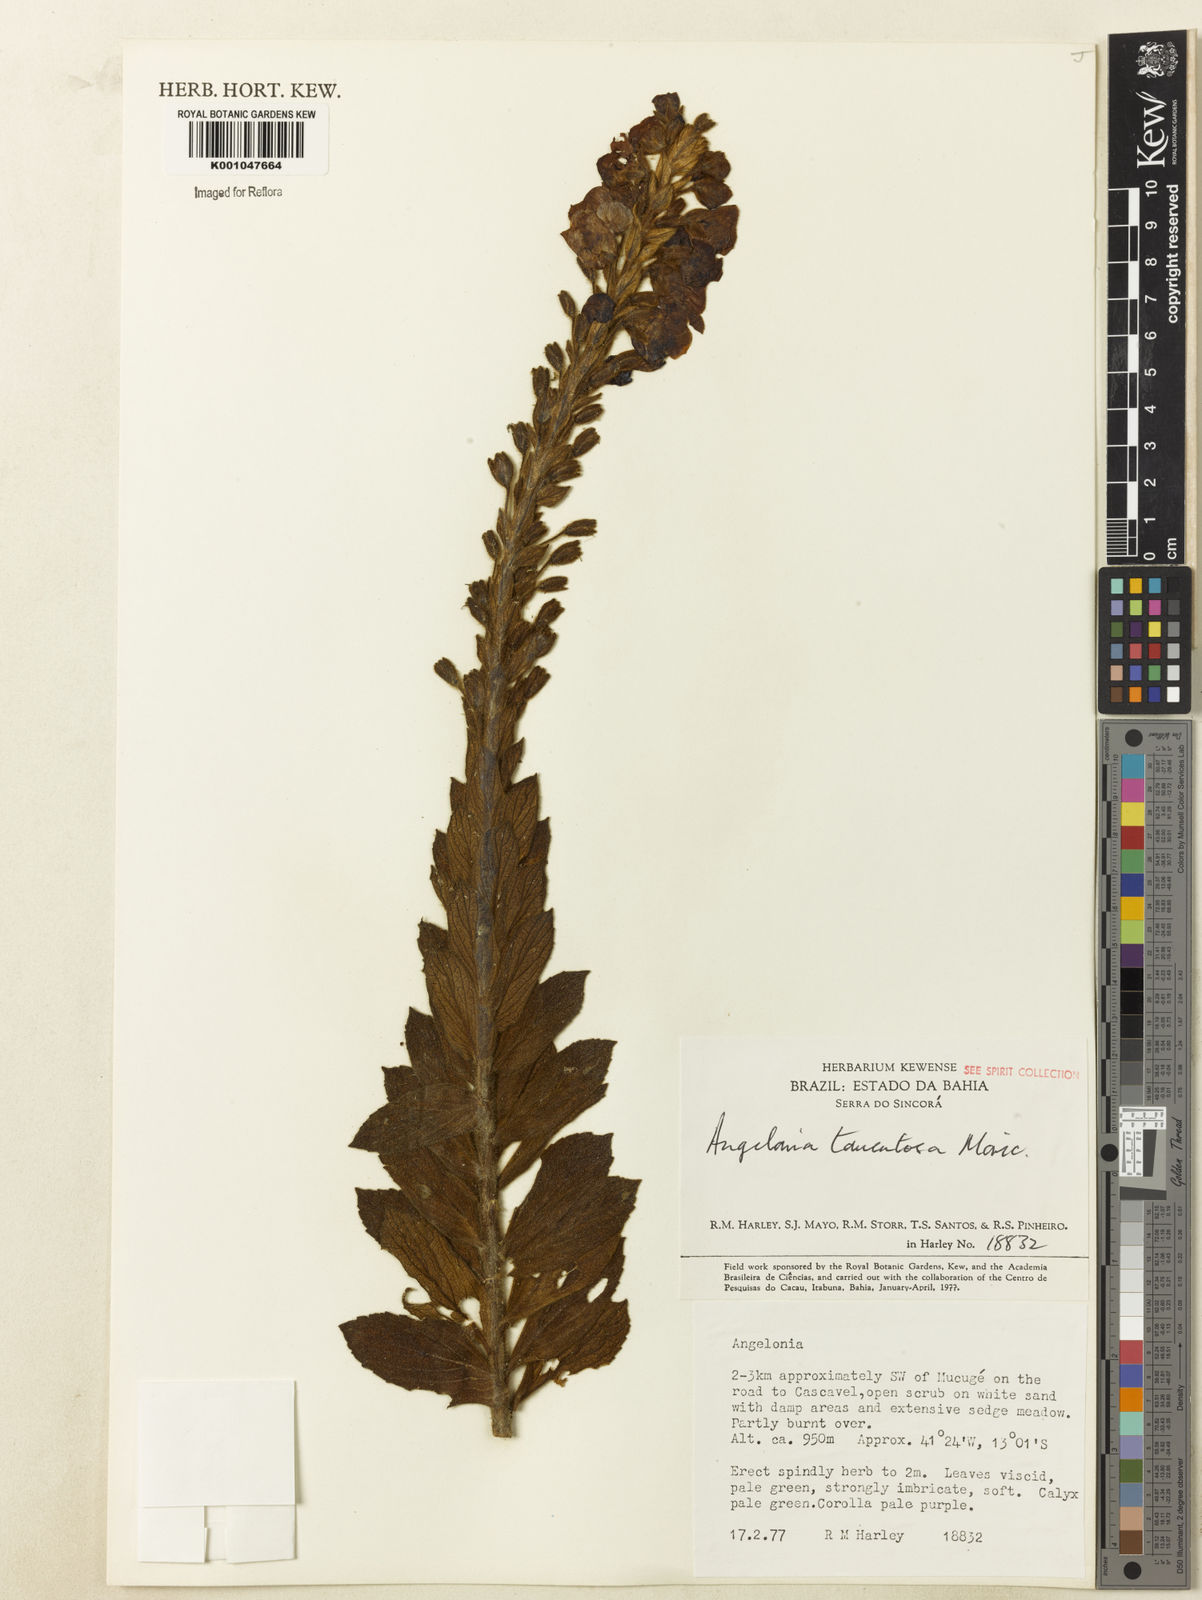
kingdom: Plantae
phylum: Tracheophyta
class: Magnoliopsida
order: Lamiales
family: Plantaginaceae
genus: Angelonia
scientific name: Angelonia tomentosa
